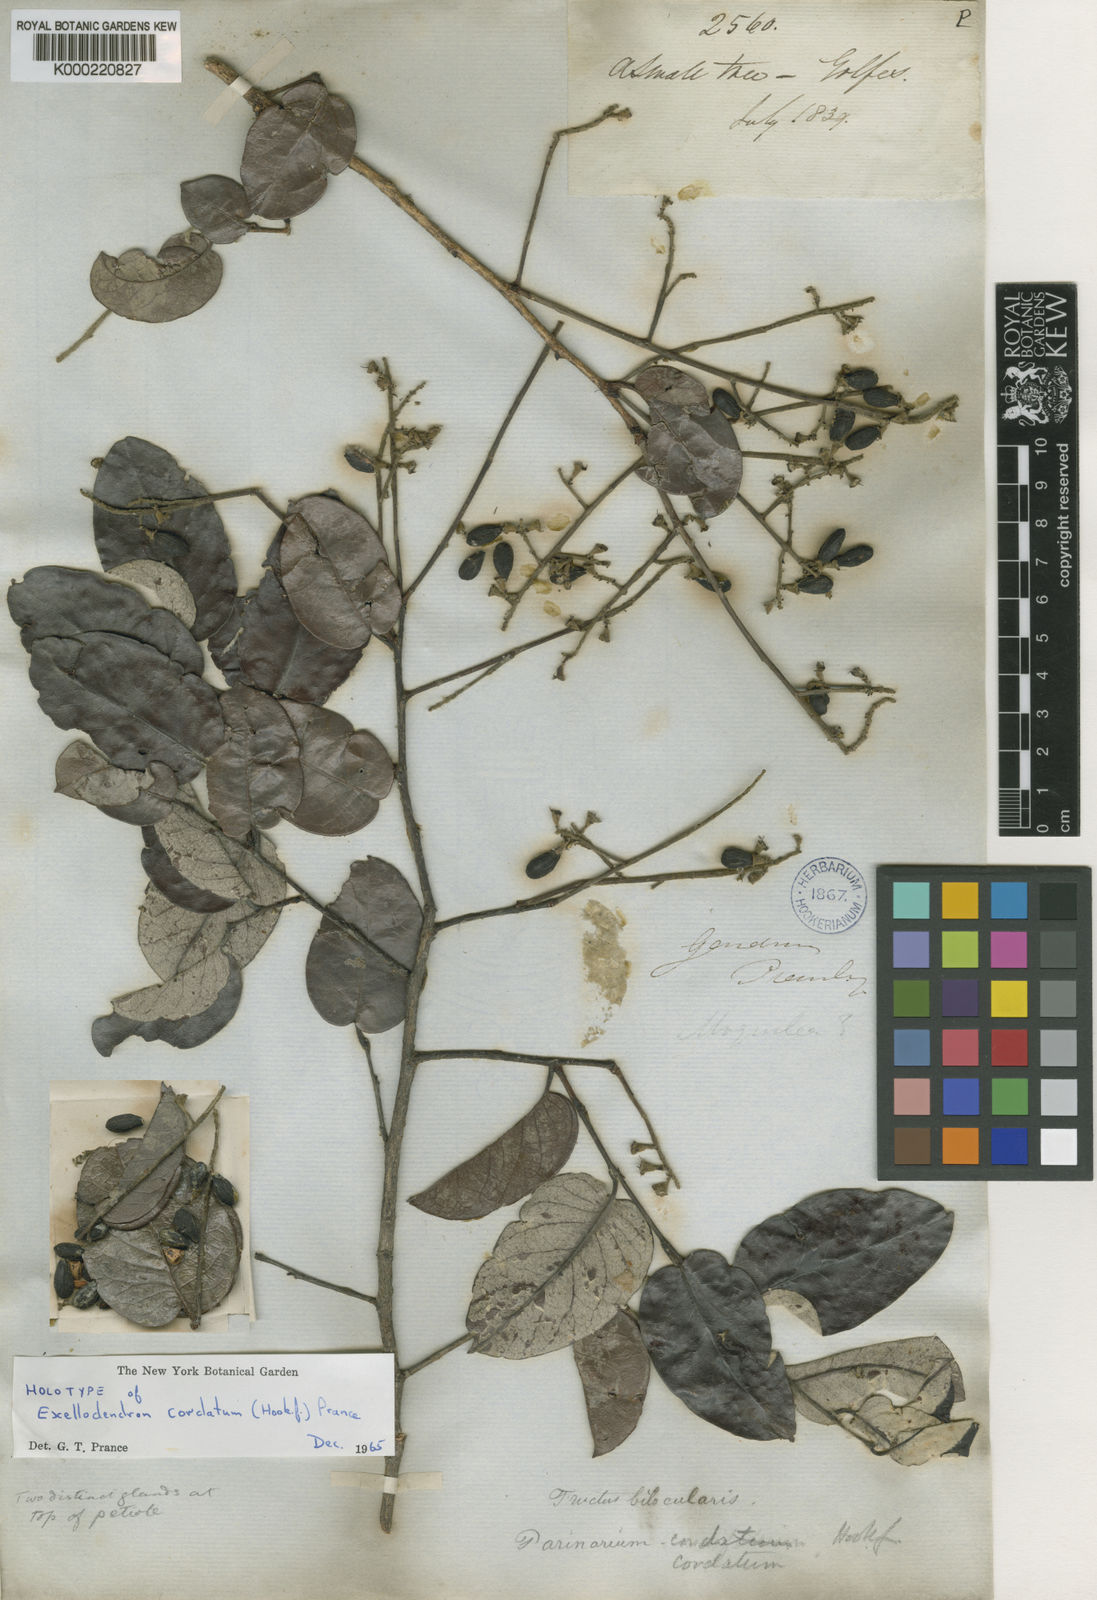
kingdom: Plantae
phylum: Tracheophyta
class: Magnoliopsida
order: Malpighiales
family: Chrysobalanaceae
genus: Exellodendron
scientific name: Exellodendron cordatum
